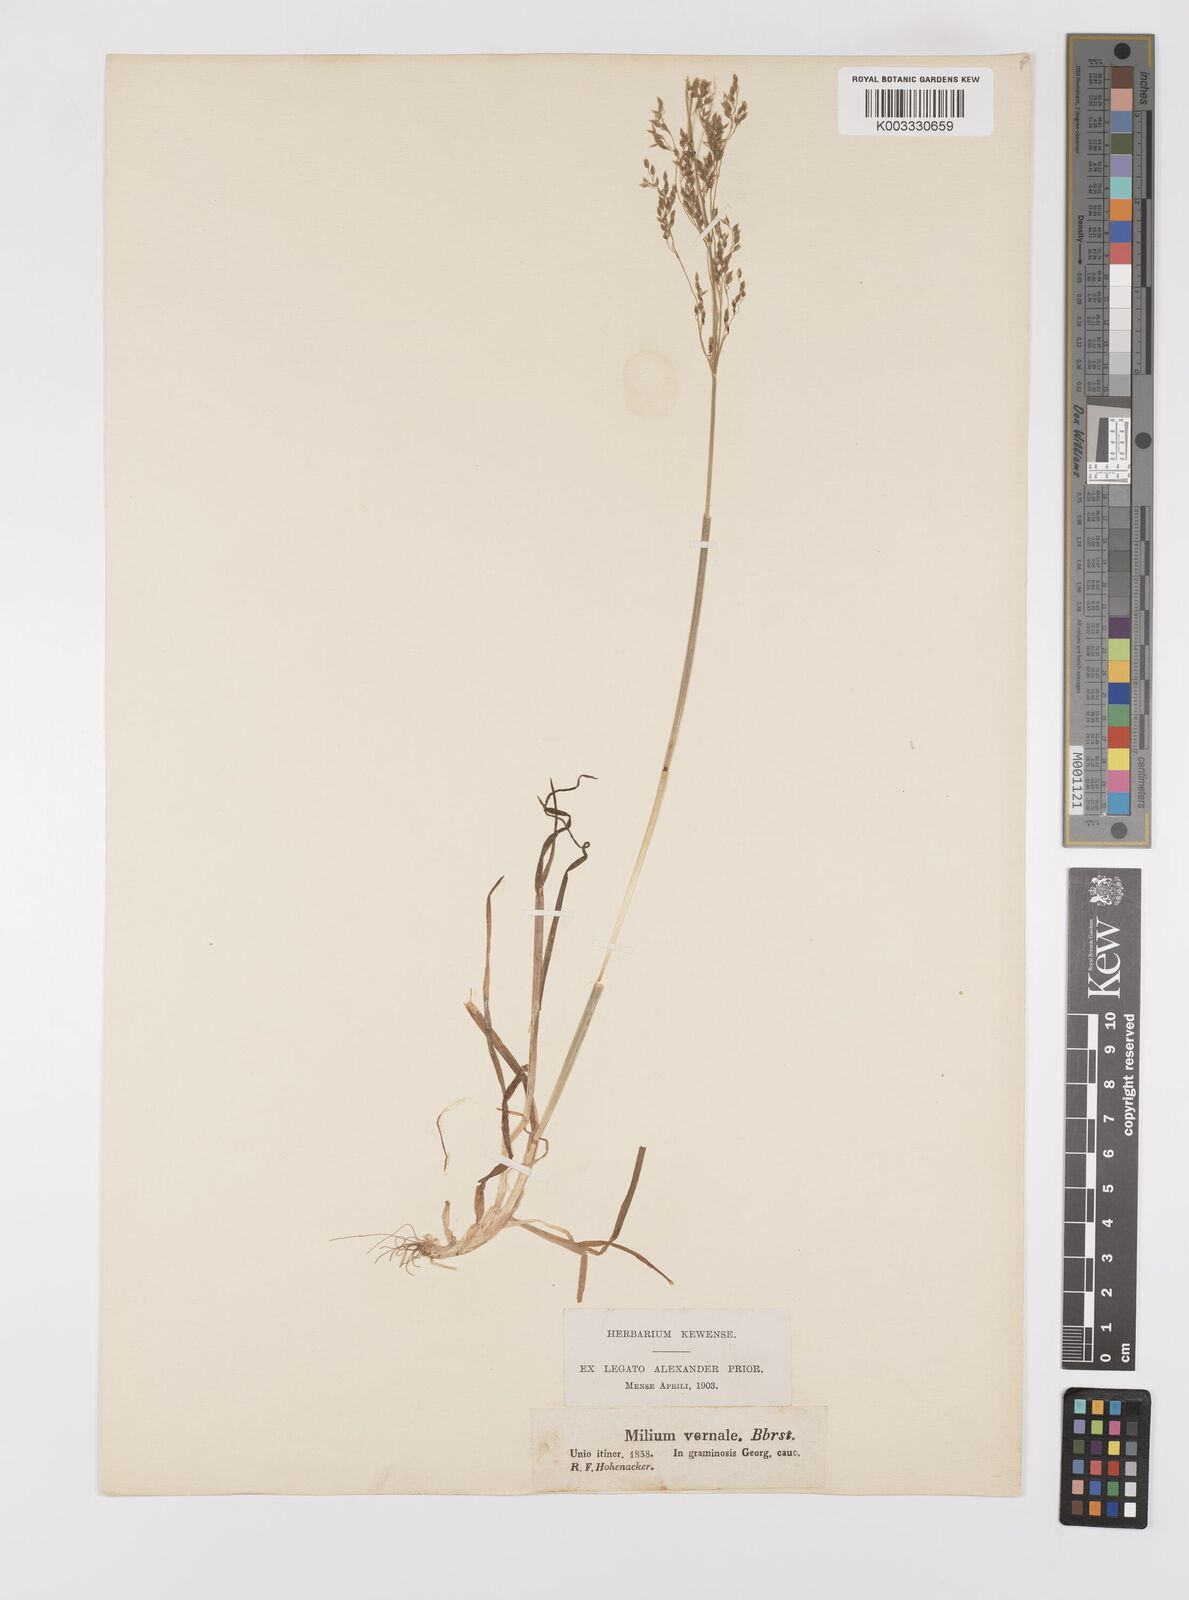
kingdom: Plantae
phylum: Tracheophyta
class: Liliopsida
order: Poales
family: Poaceae
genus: Milium
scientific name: Milium vernale
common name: Early millet
